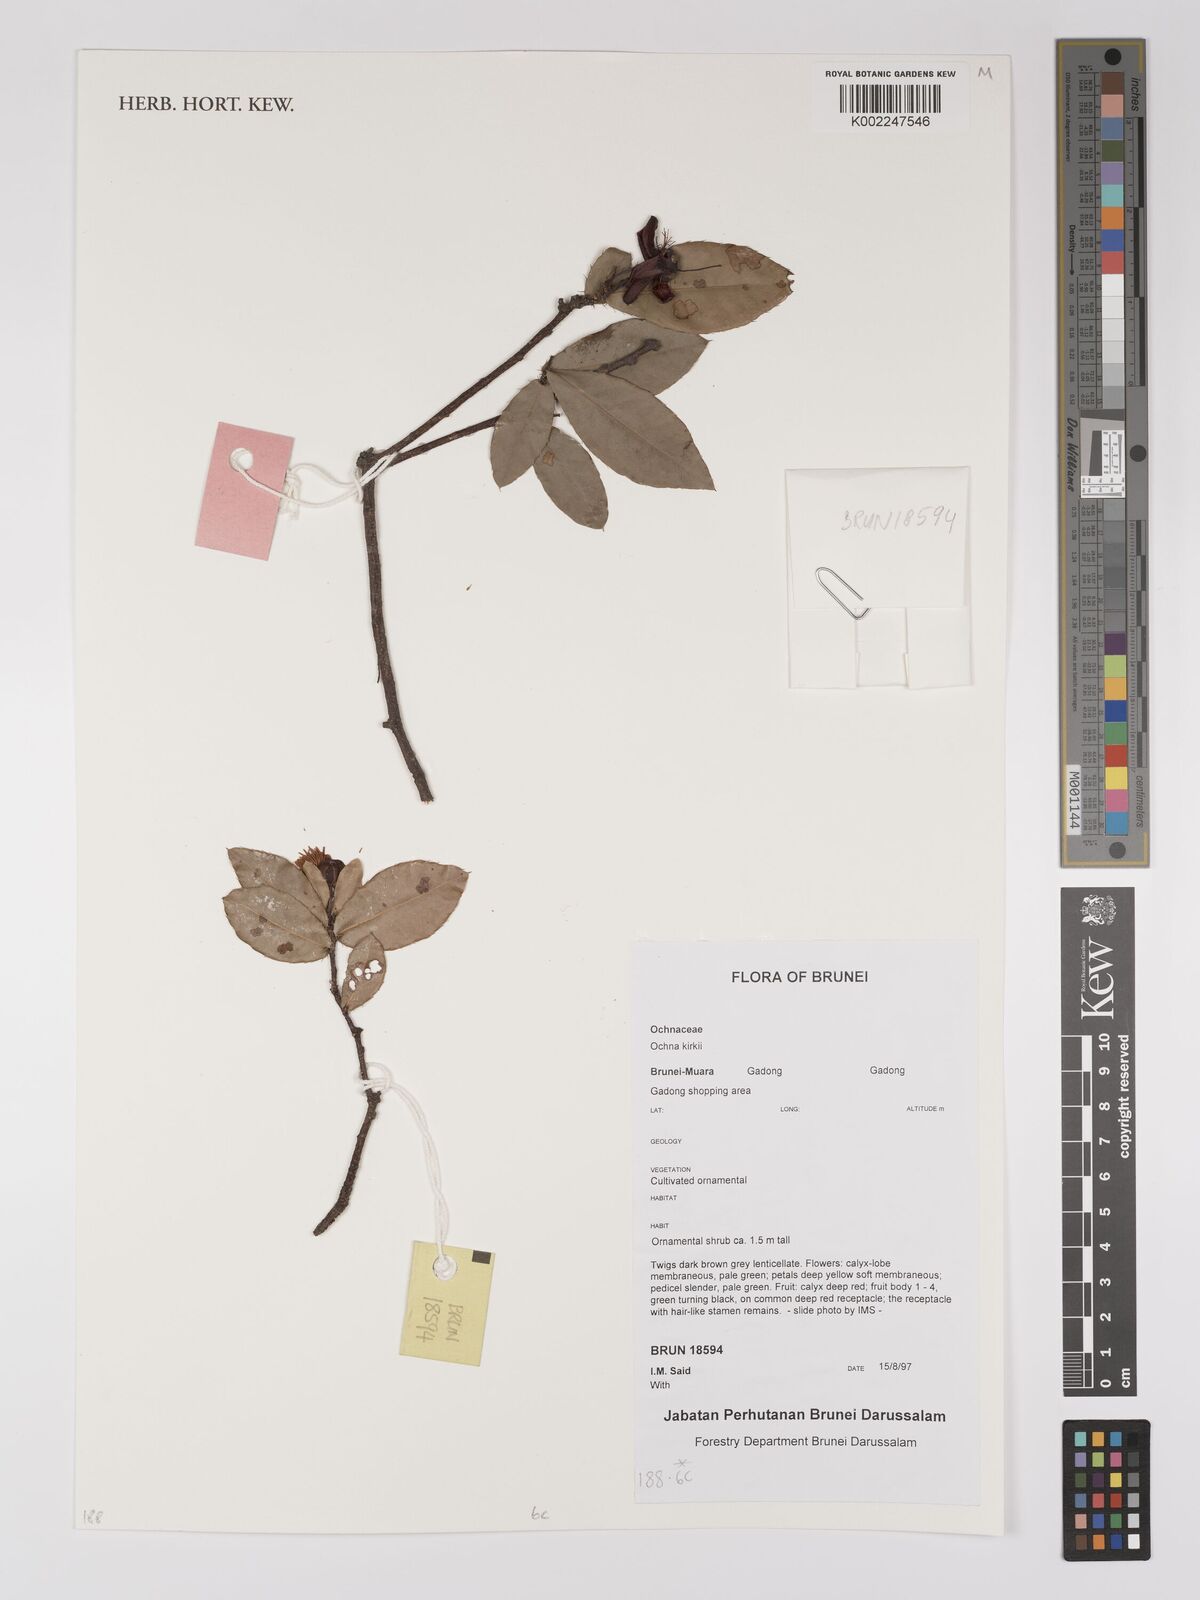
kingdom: Plantae
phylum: Tracheophyta
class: Magnoliopsida
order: Malpighiales
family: Ochnaceae
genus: Ochna
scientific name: Ochna kirkii
